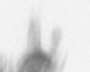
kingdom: Animalia
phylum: Annelida
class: Polychaeta
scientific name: Polychaeta
